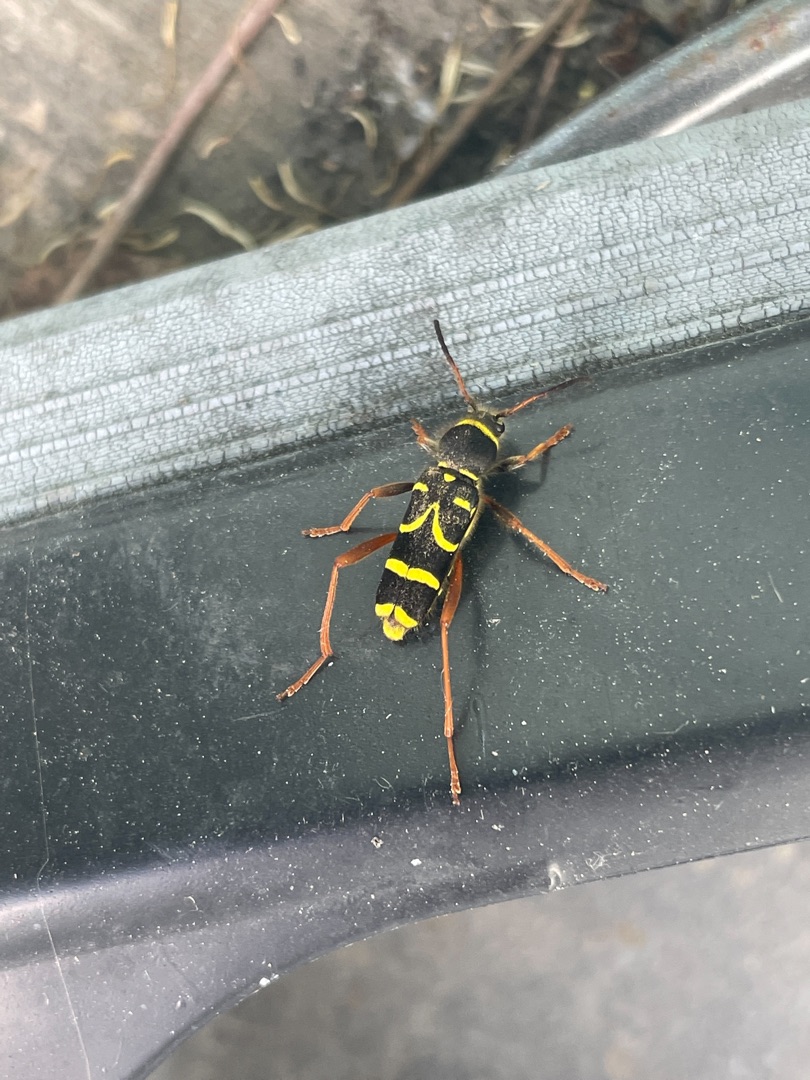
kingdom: Animalia
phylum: Arthropoda
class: Insecta
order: Coleoptera
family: Cerambycidae
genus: Clytus
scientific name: Clytus arietis
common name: Lille hvepsebuk
